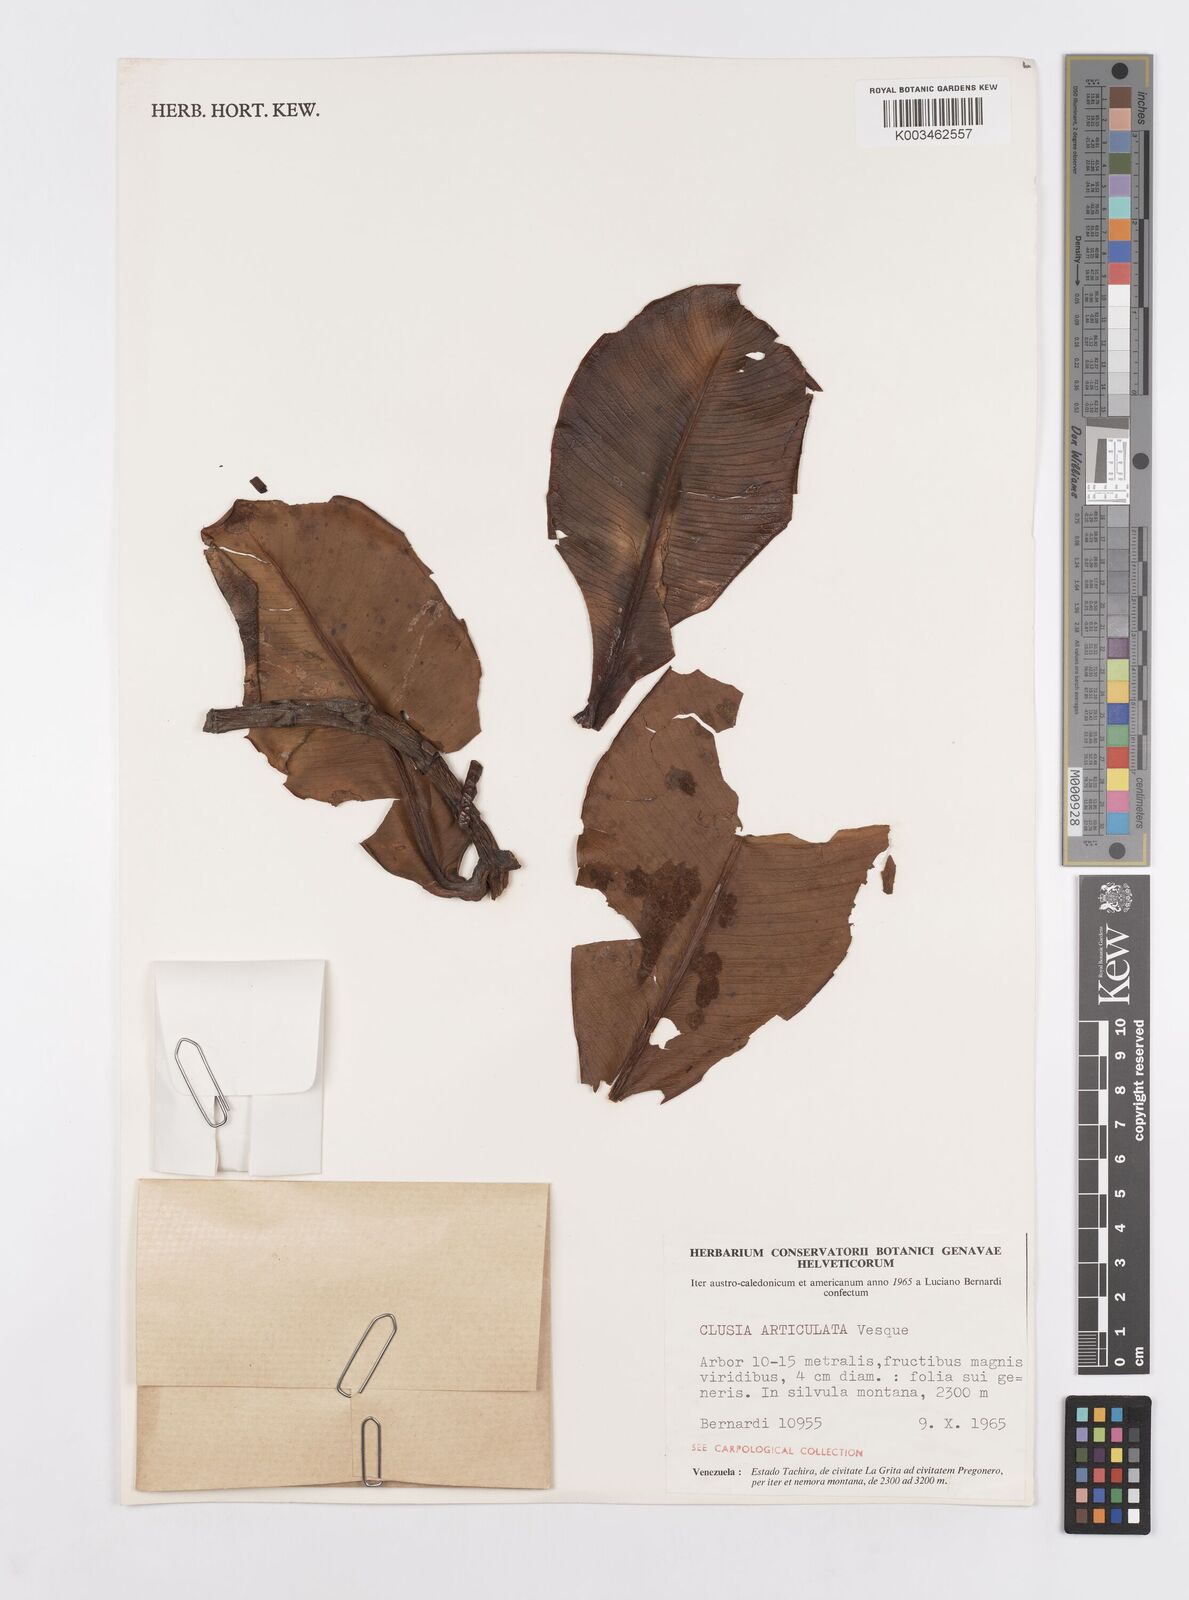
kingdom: Plantae
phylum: Tracheophyta
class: Magnoliopsida
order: Malpighiales
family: Clusiaceae
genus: Clusia
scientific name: Clusia articulata
